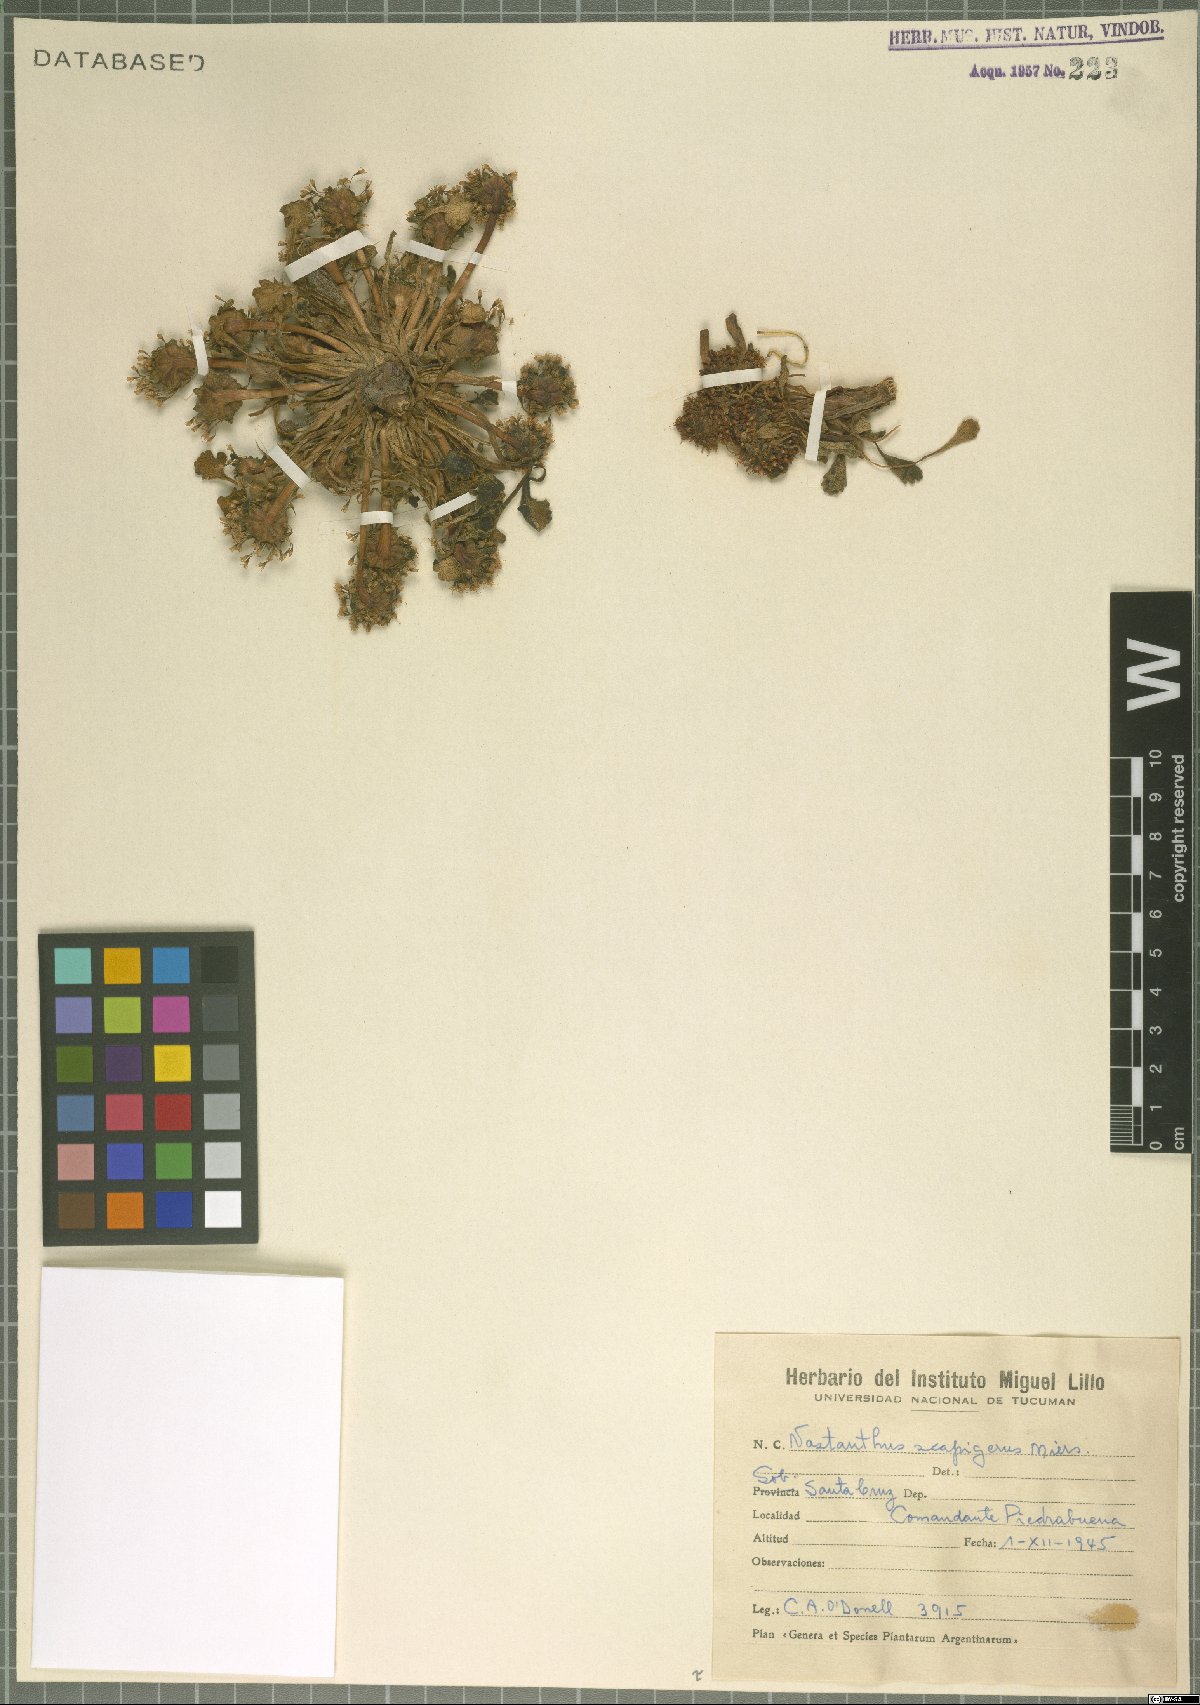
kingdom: Plantae
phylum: Tracheophyta
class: Magnoliopsida
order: Asterales
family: Calyceraceae
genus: Gamocarpha
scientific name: Gamocarpha scapigera
